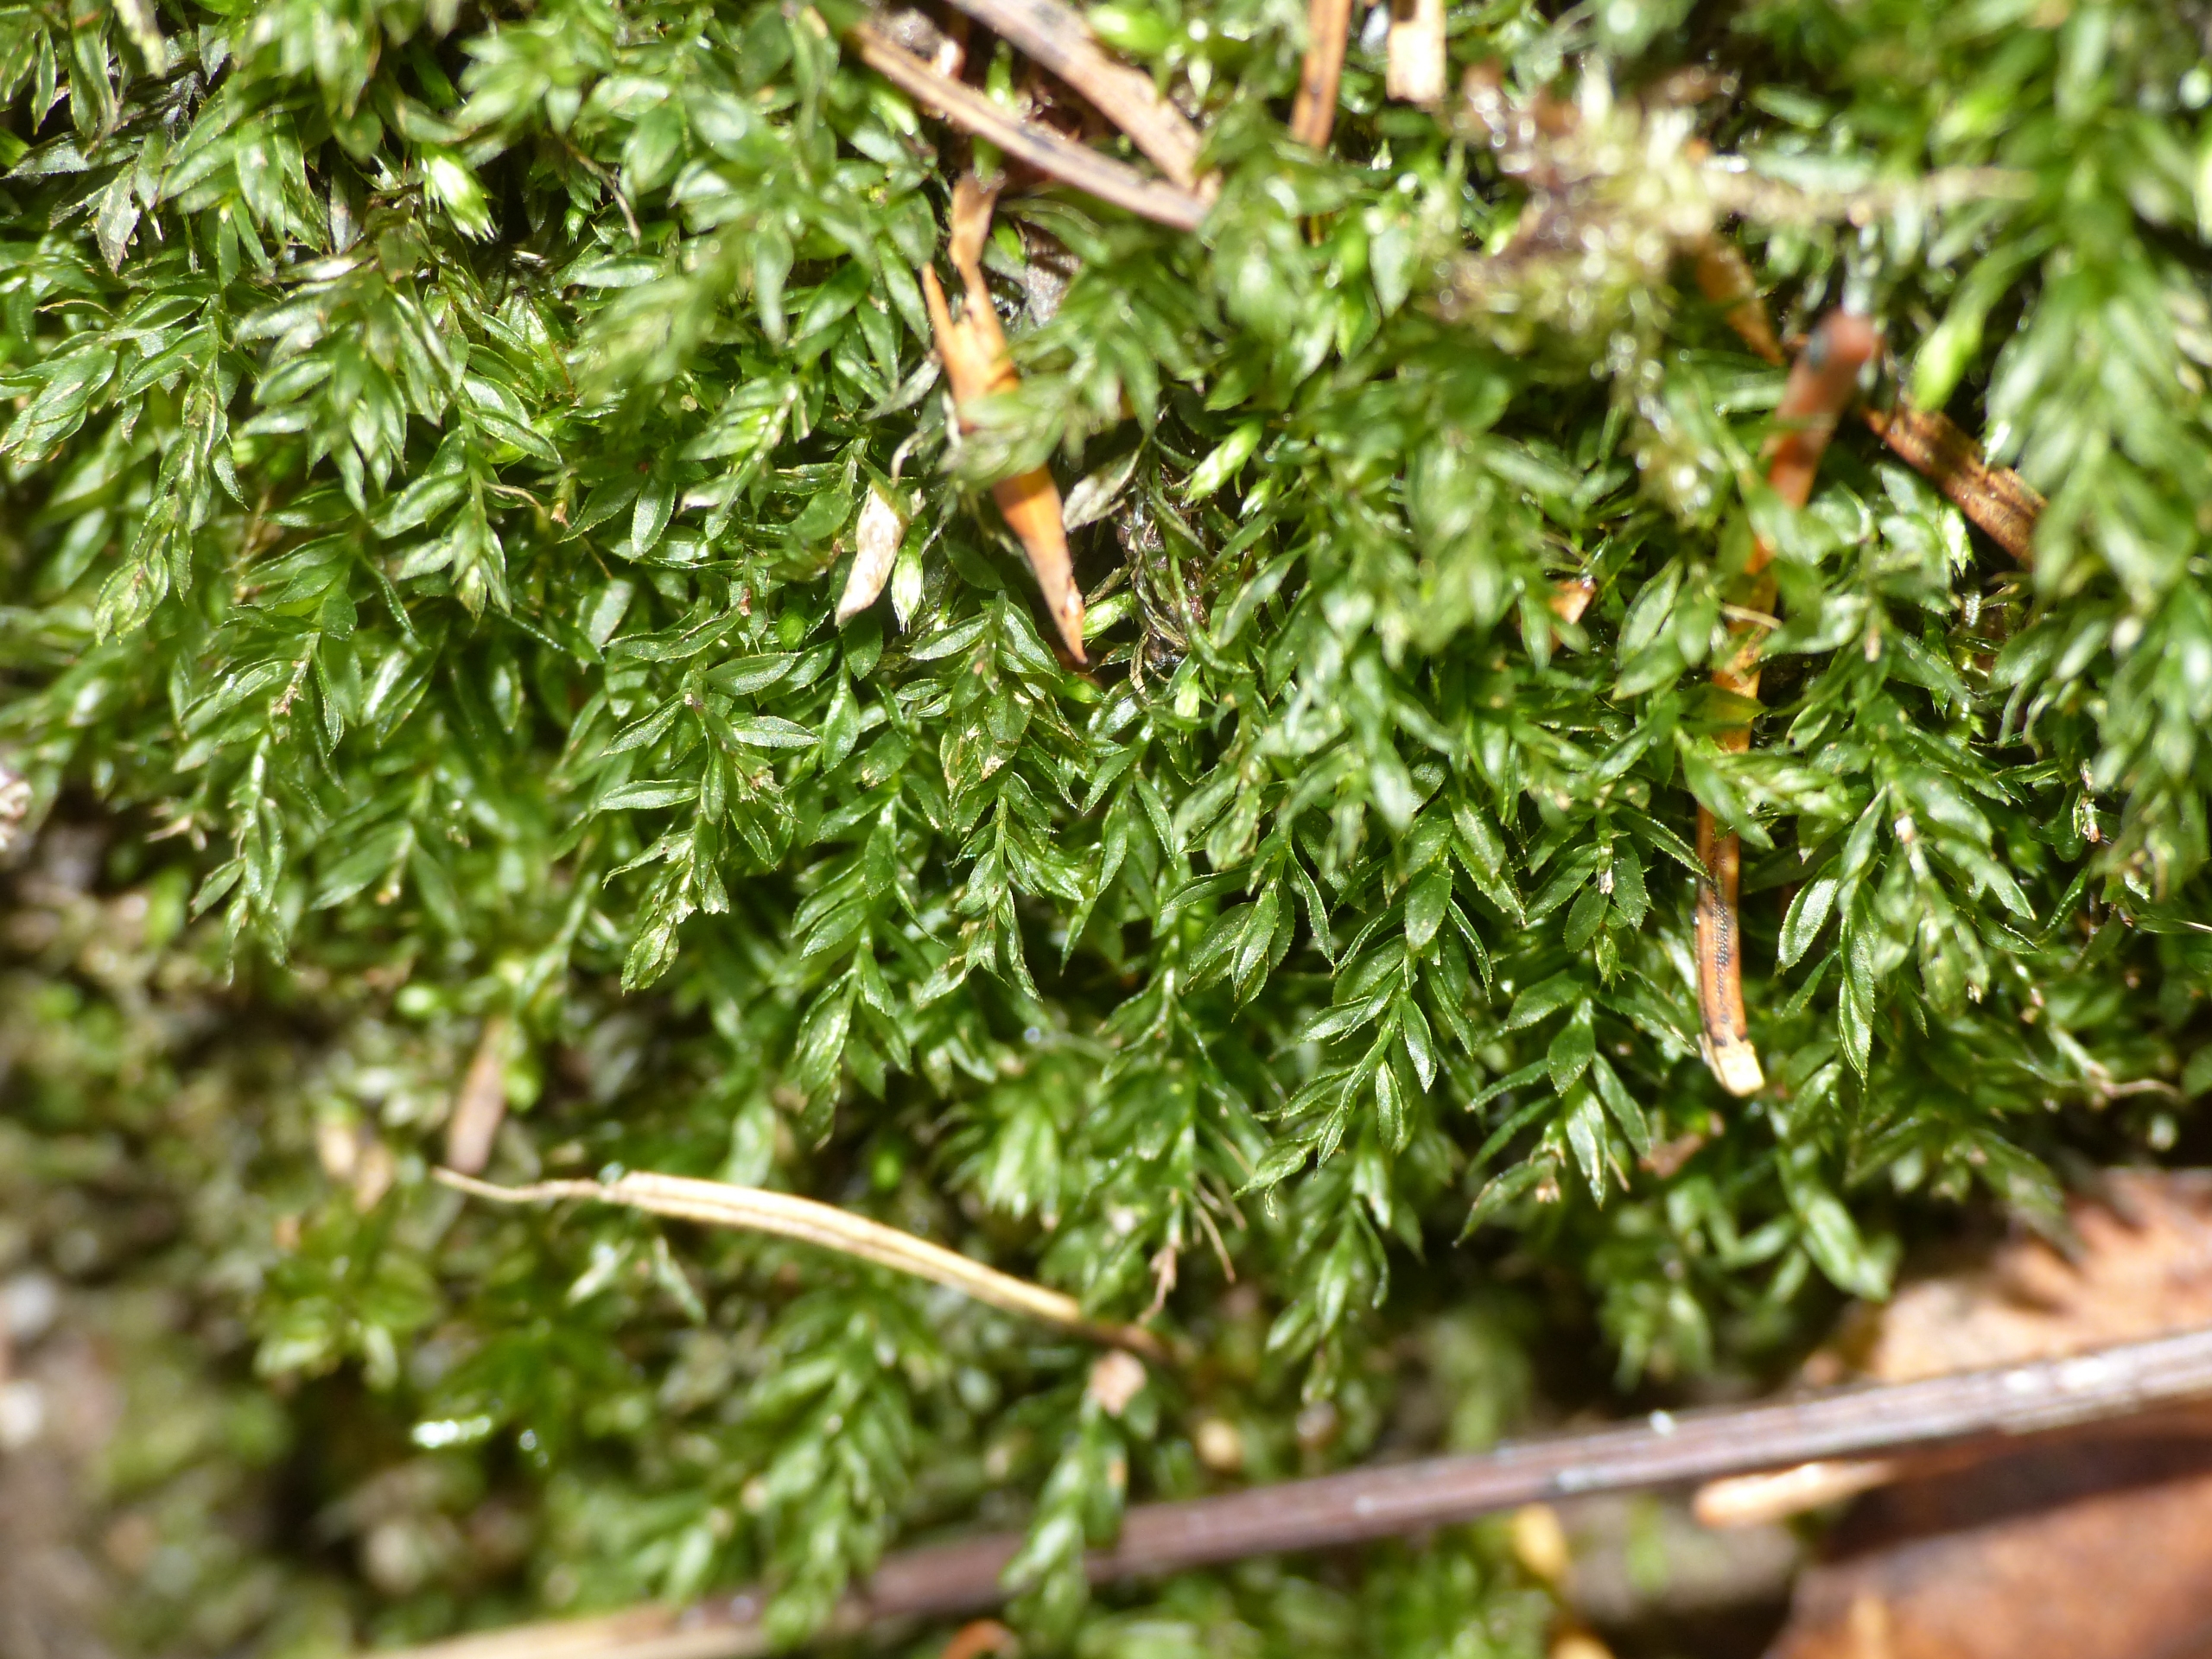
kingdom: Plantae
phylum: Bryophyta
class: Bryopsida
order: Bryales
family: Mniaceae
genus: Mnium
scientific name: Mnium hornum
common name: Brunfiltet stjernemos
